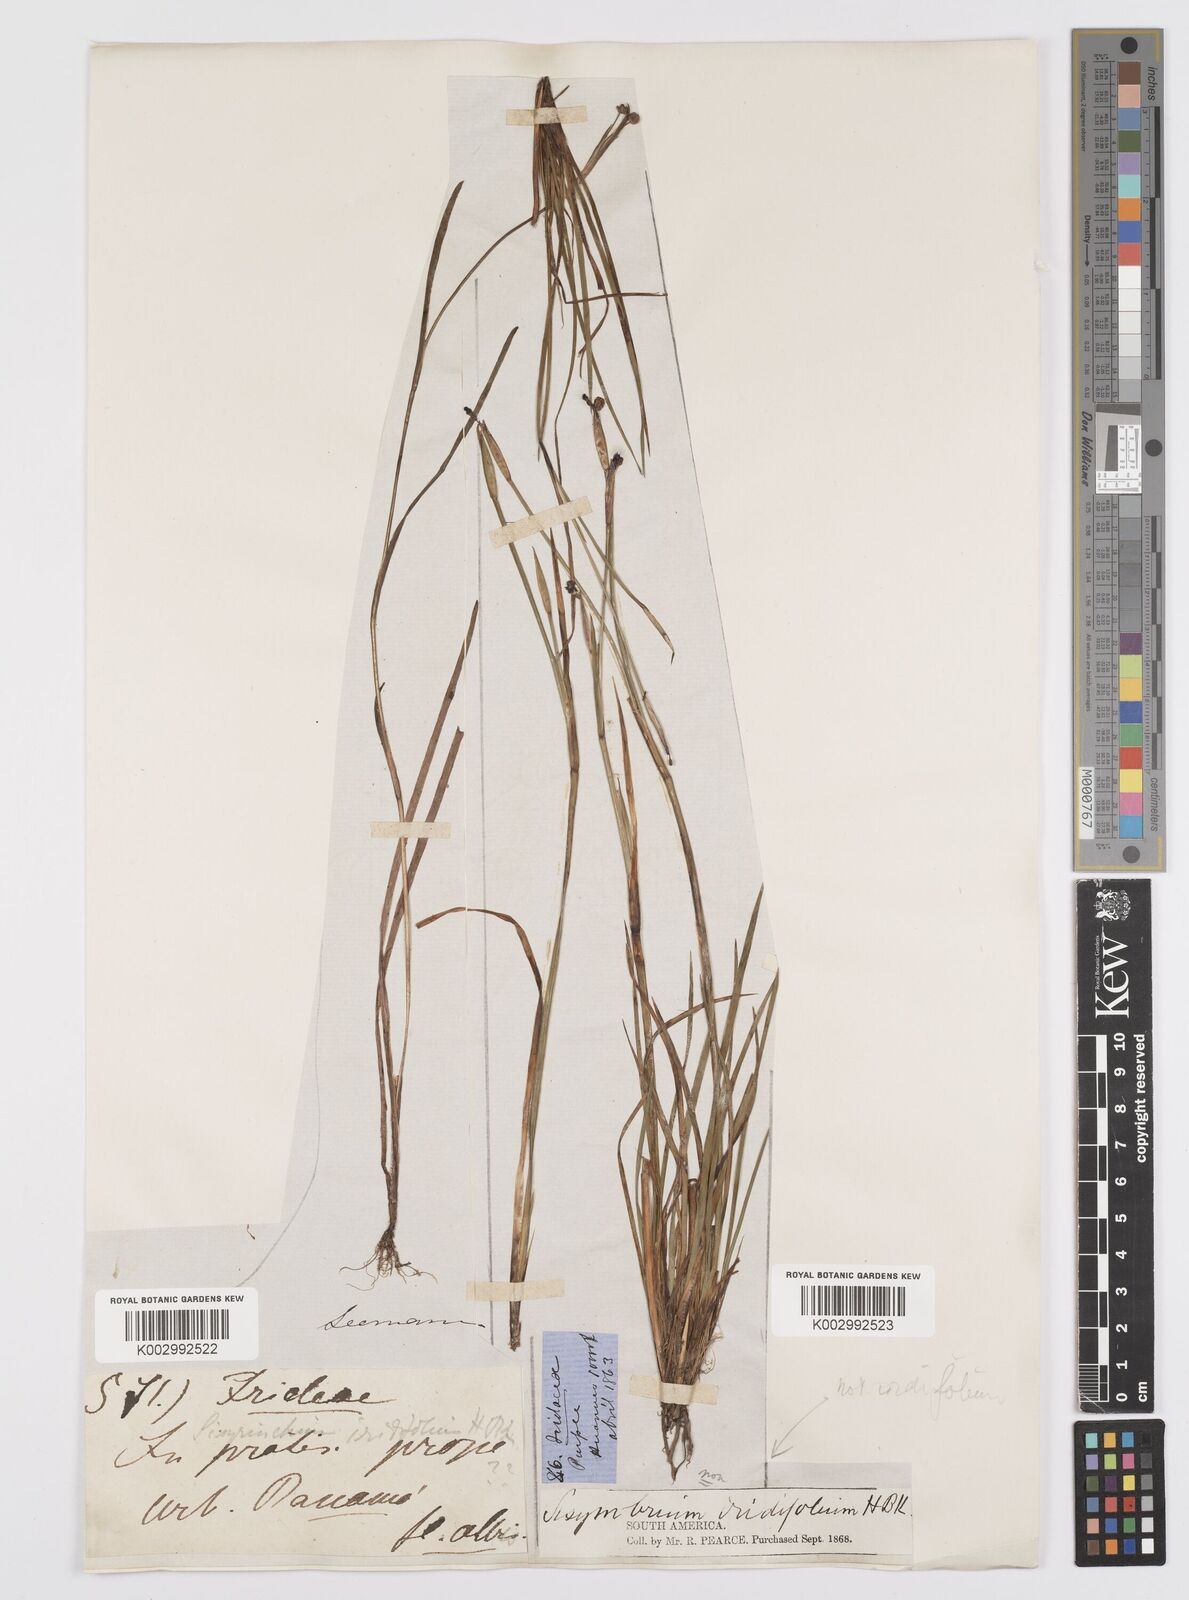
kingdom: Plantae
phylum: Tracheophyta
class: Liliopsida
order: Asparagales
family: Iridaceae
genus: Sisyrinchium
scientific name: Sisyrinchium micranthum
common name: Bermuda pigroot
